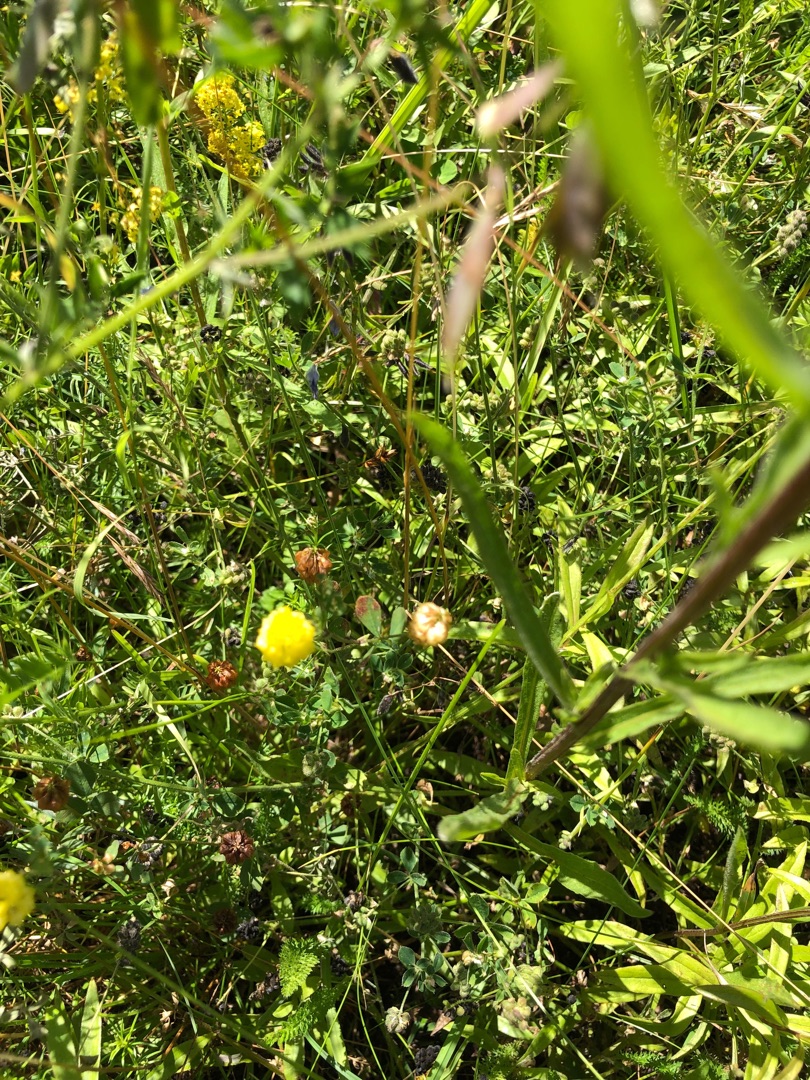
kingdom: Plantae
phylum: Tracheophyta
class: Magnoliopsida
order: Fabales
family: Fabaceae
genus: Trifolium
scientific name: Trifolium campestre
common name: Gul kløver
